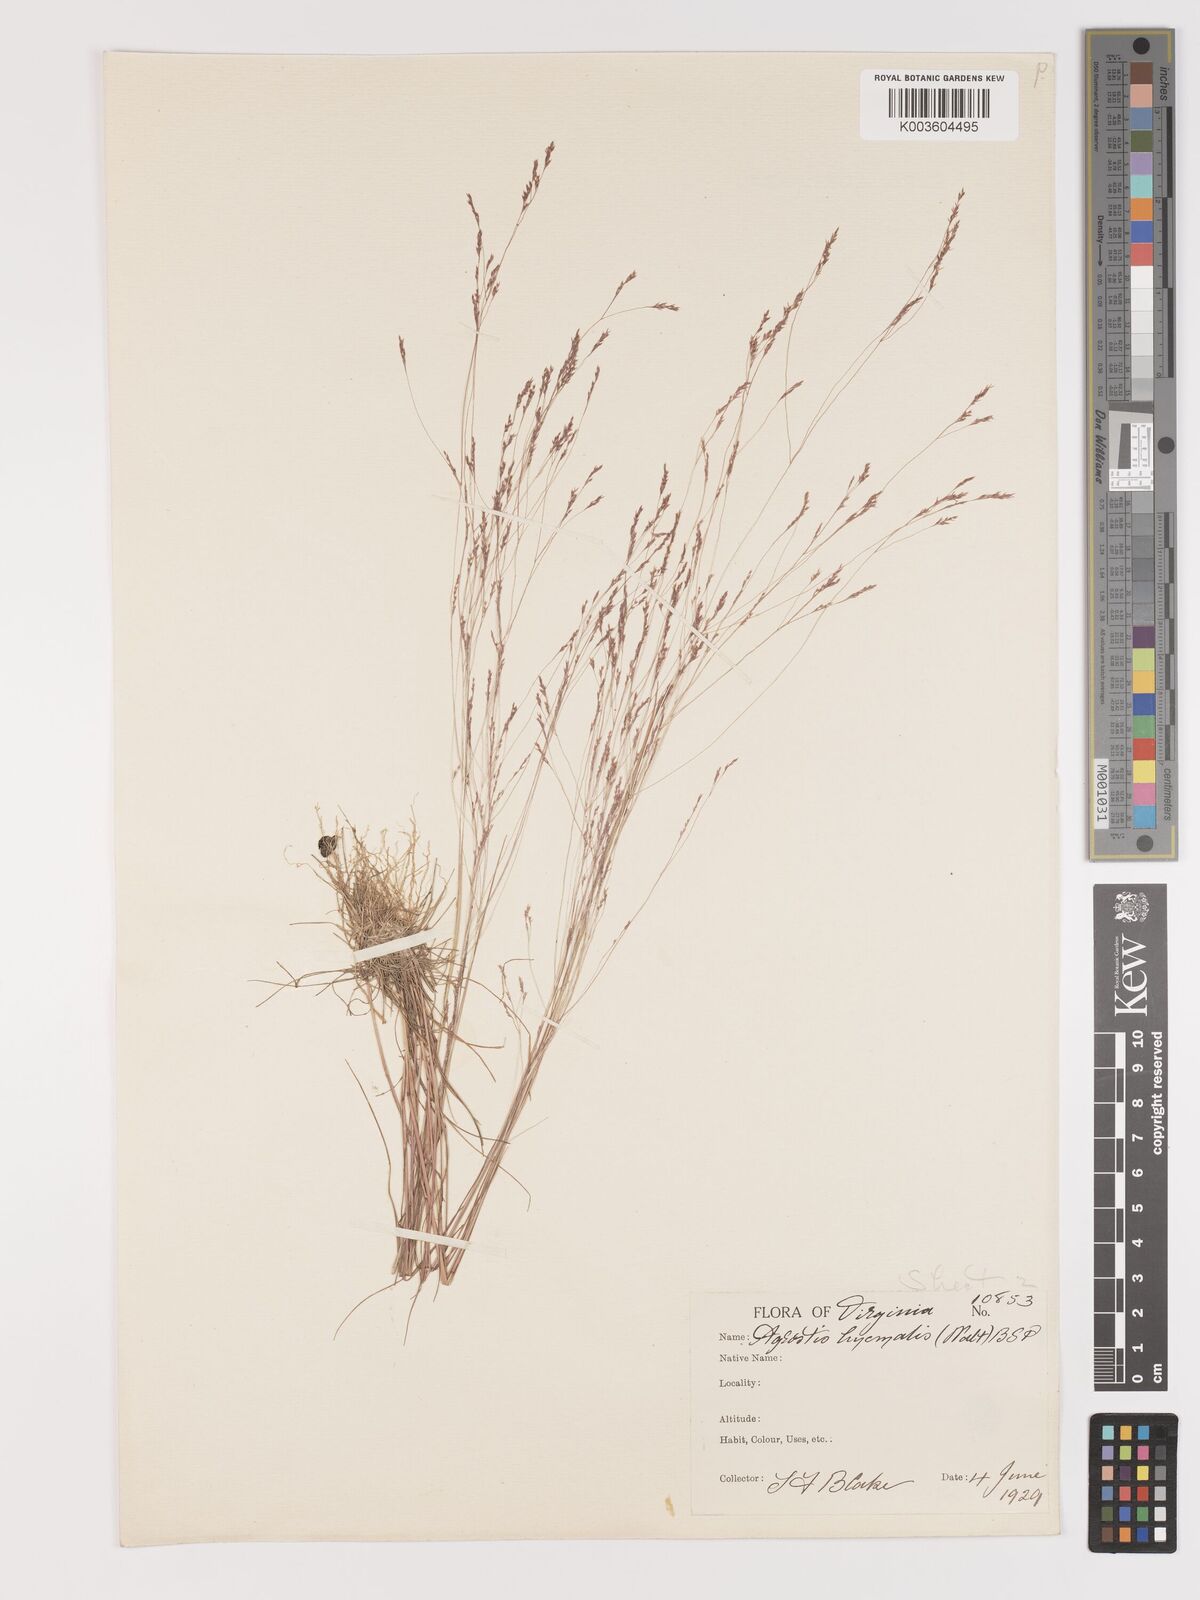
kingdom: Plantae
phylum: Tracheophyta
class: Liliopsida
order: Poales
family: Poaceae
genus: Agrostis
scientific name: Agrostis hyemalis
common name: Small bent
